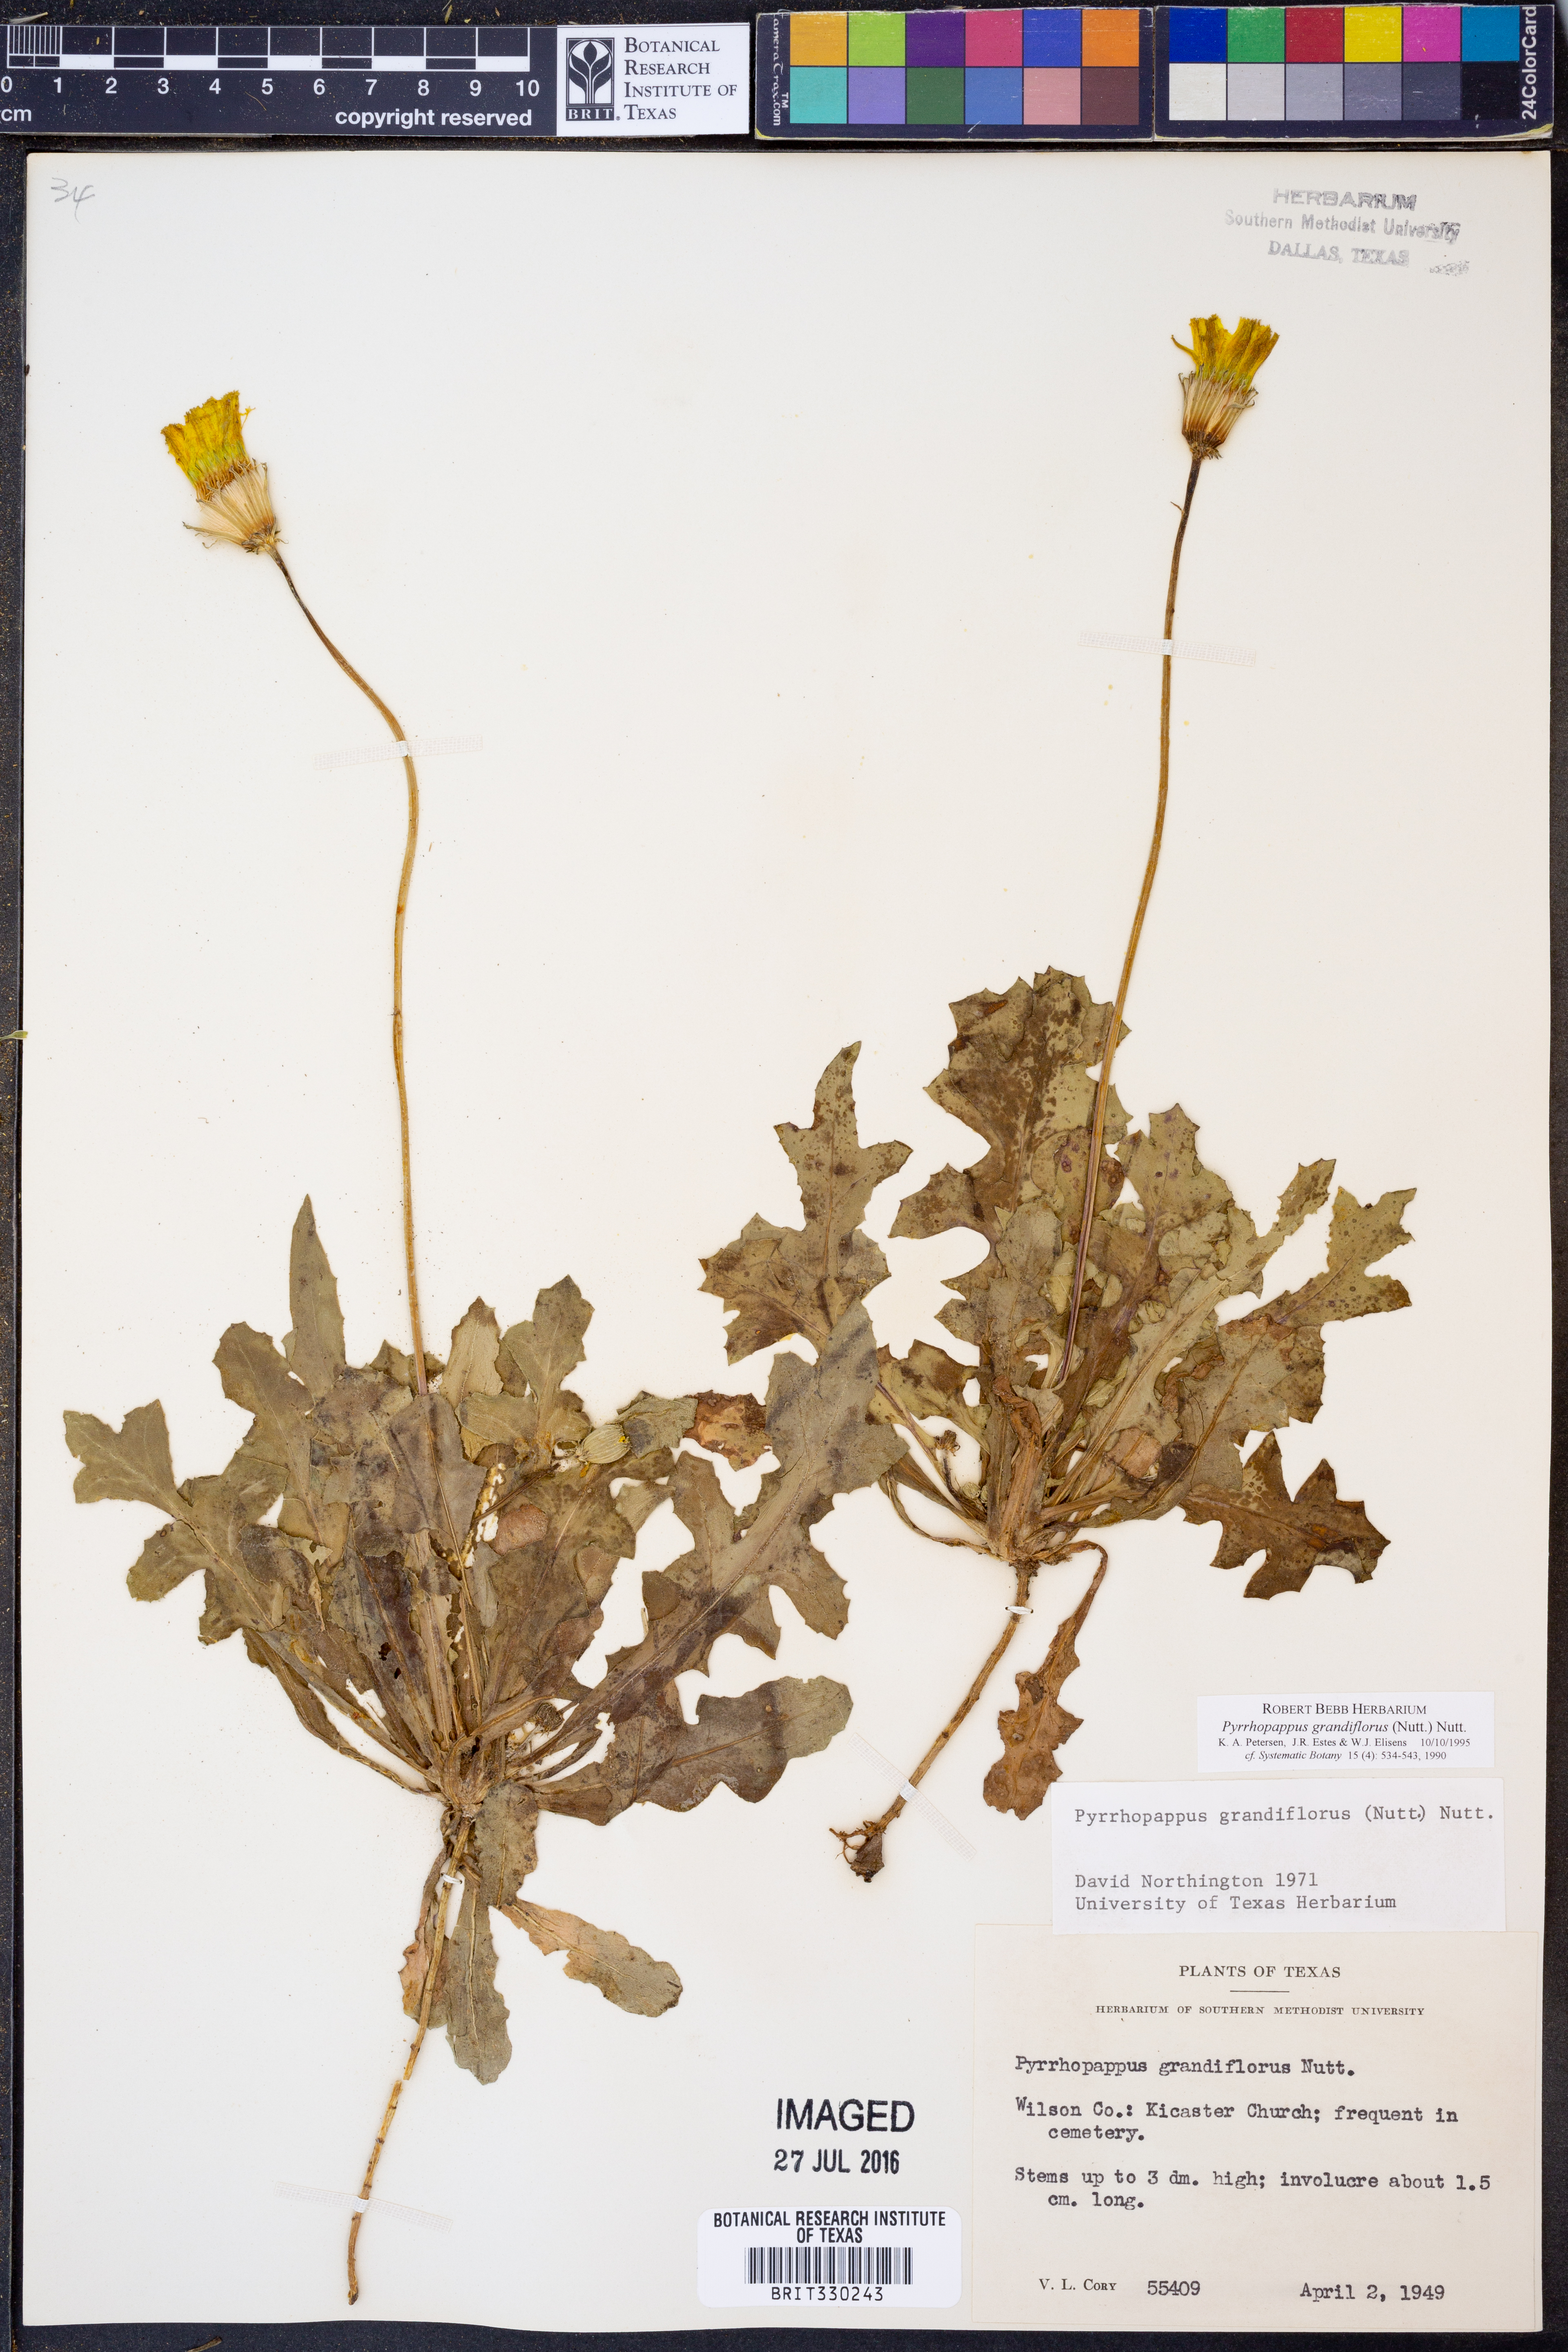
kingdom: Plantae
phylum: Tracheophyta
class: Magnoliopsida
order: Asterales
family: Asteraceae
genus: Pyrrhopappus
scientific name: Pyrrhopappus grandiflorus
